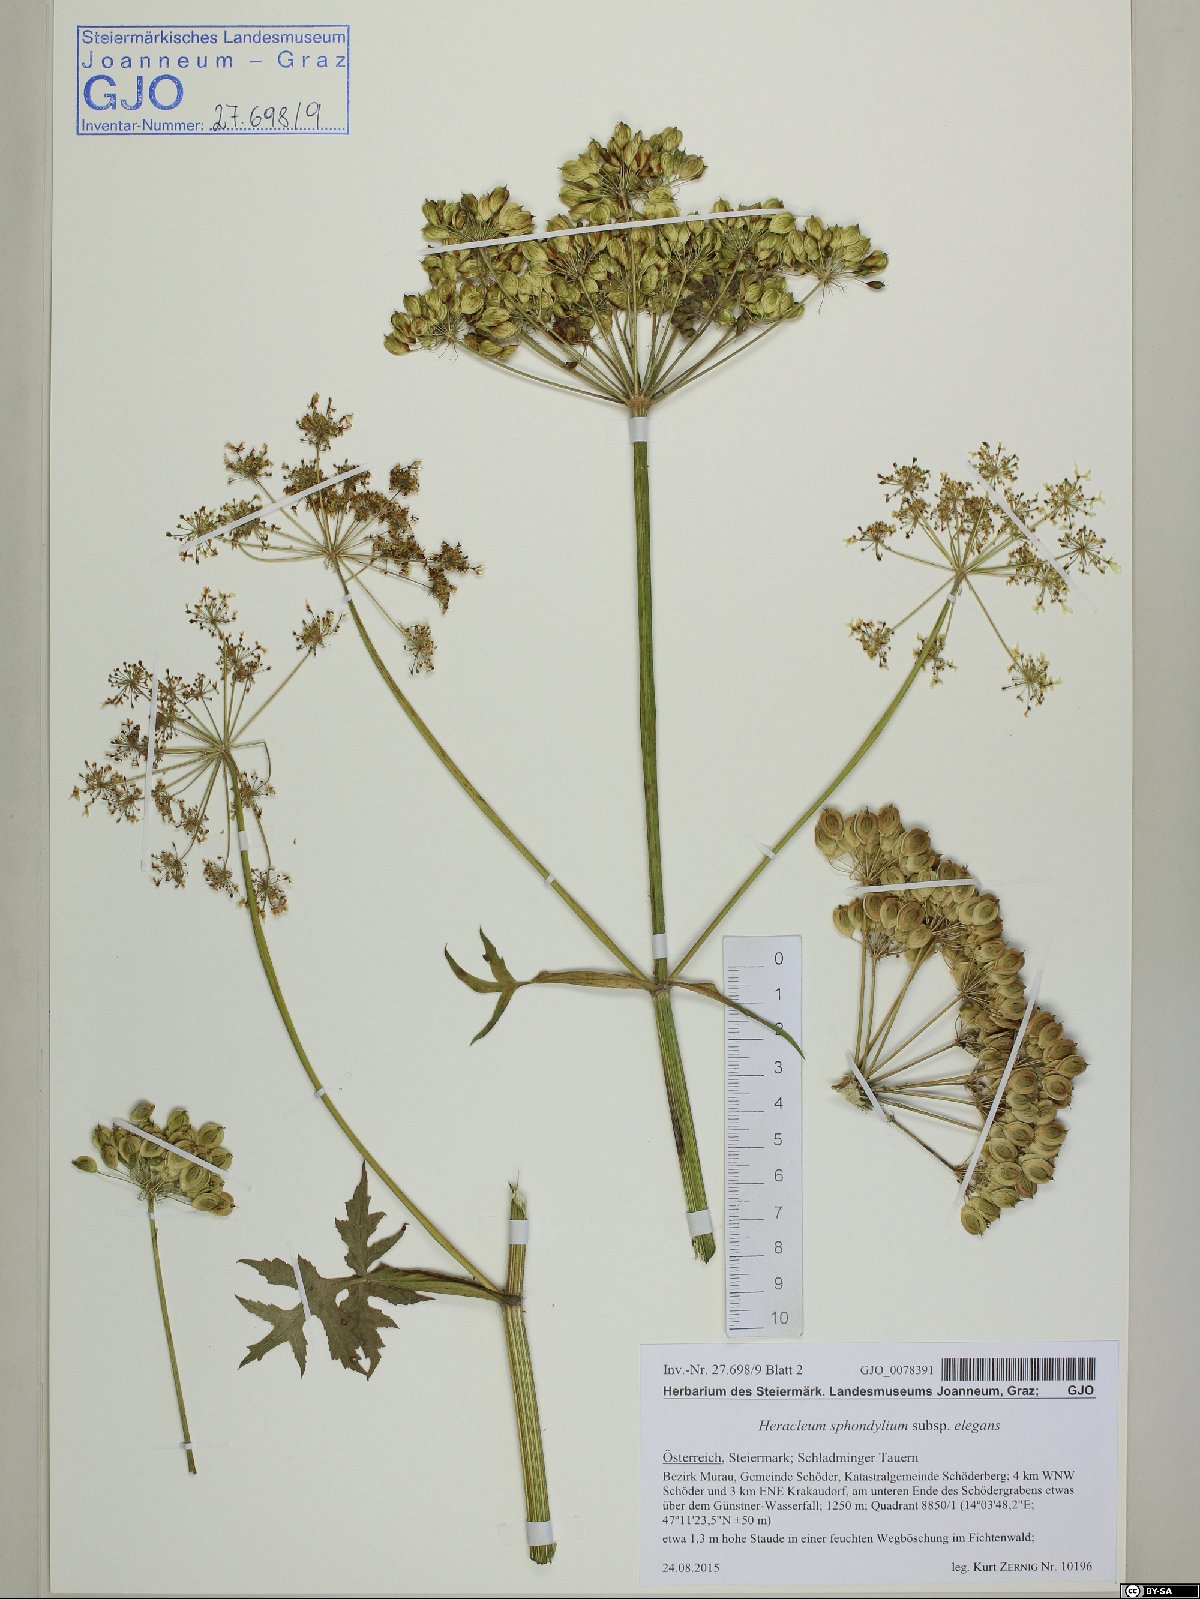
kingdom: Plantae
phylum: Tracheophyta
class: Magnoliopsida
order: Apiales
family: Apiaceae
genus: Heracleum
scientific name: Heracleum sphondylium
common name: Hogweed
